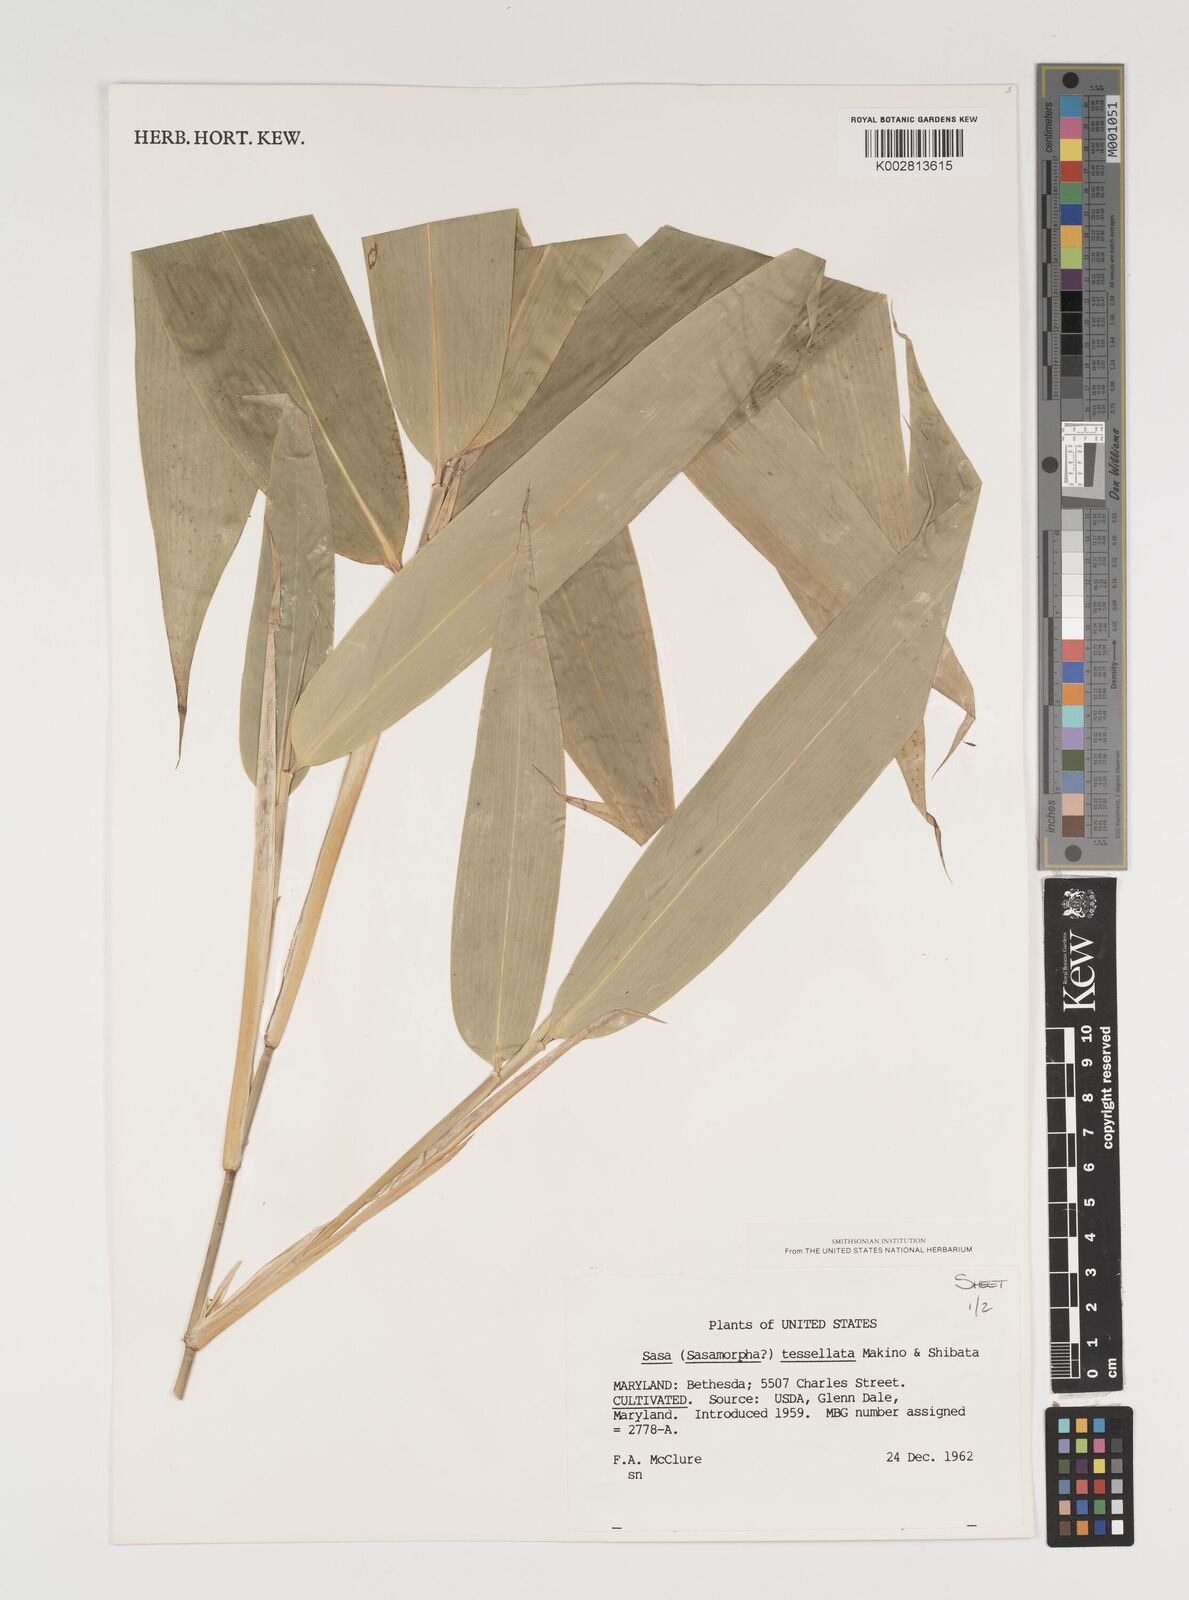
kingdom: Plantae
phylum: Tracheophyta
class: Liliopsida
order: Poales
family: Poaceae
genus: Indocalamus
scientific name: Indocalamus tessellatus
